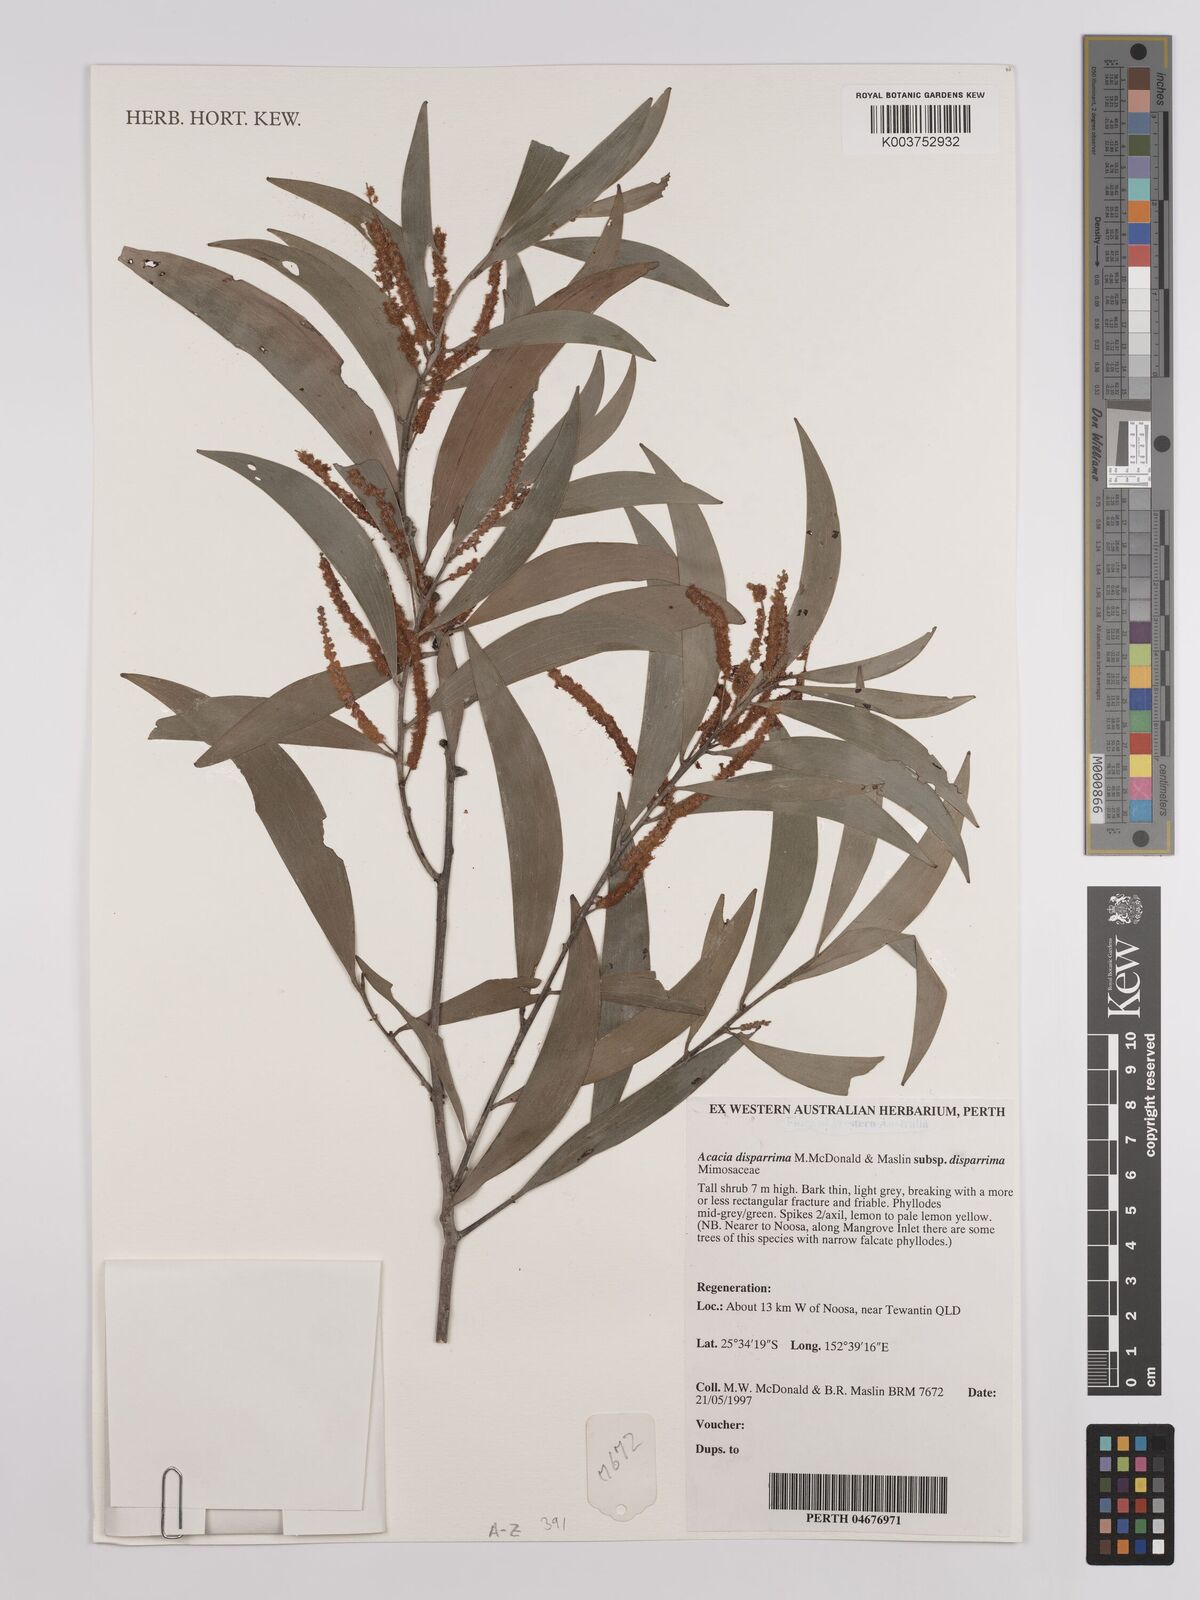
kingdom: Plantae
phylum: Tracheophyta
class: Magnoliopsida
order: Fabales
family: Fabaceae
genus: Acacia
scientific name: Acacia disparrima
